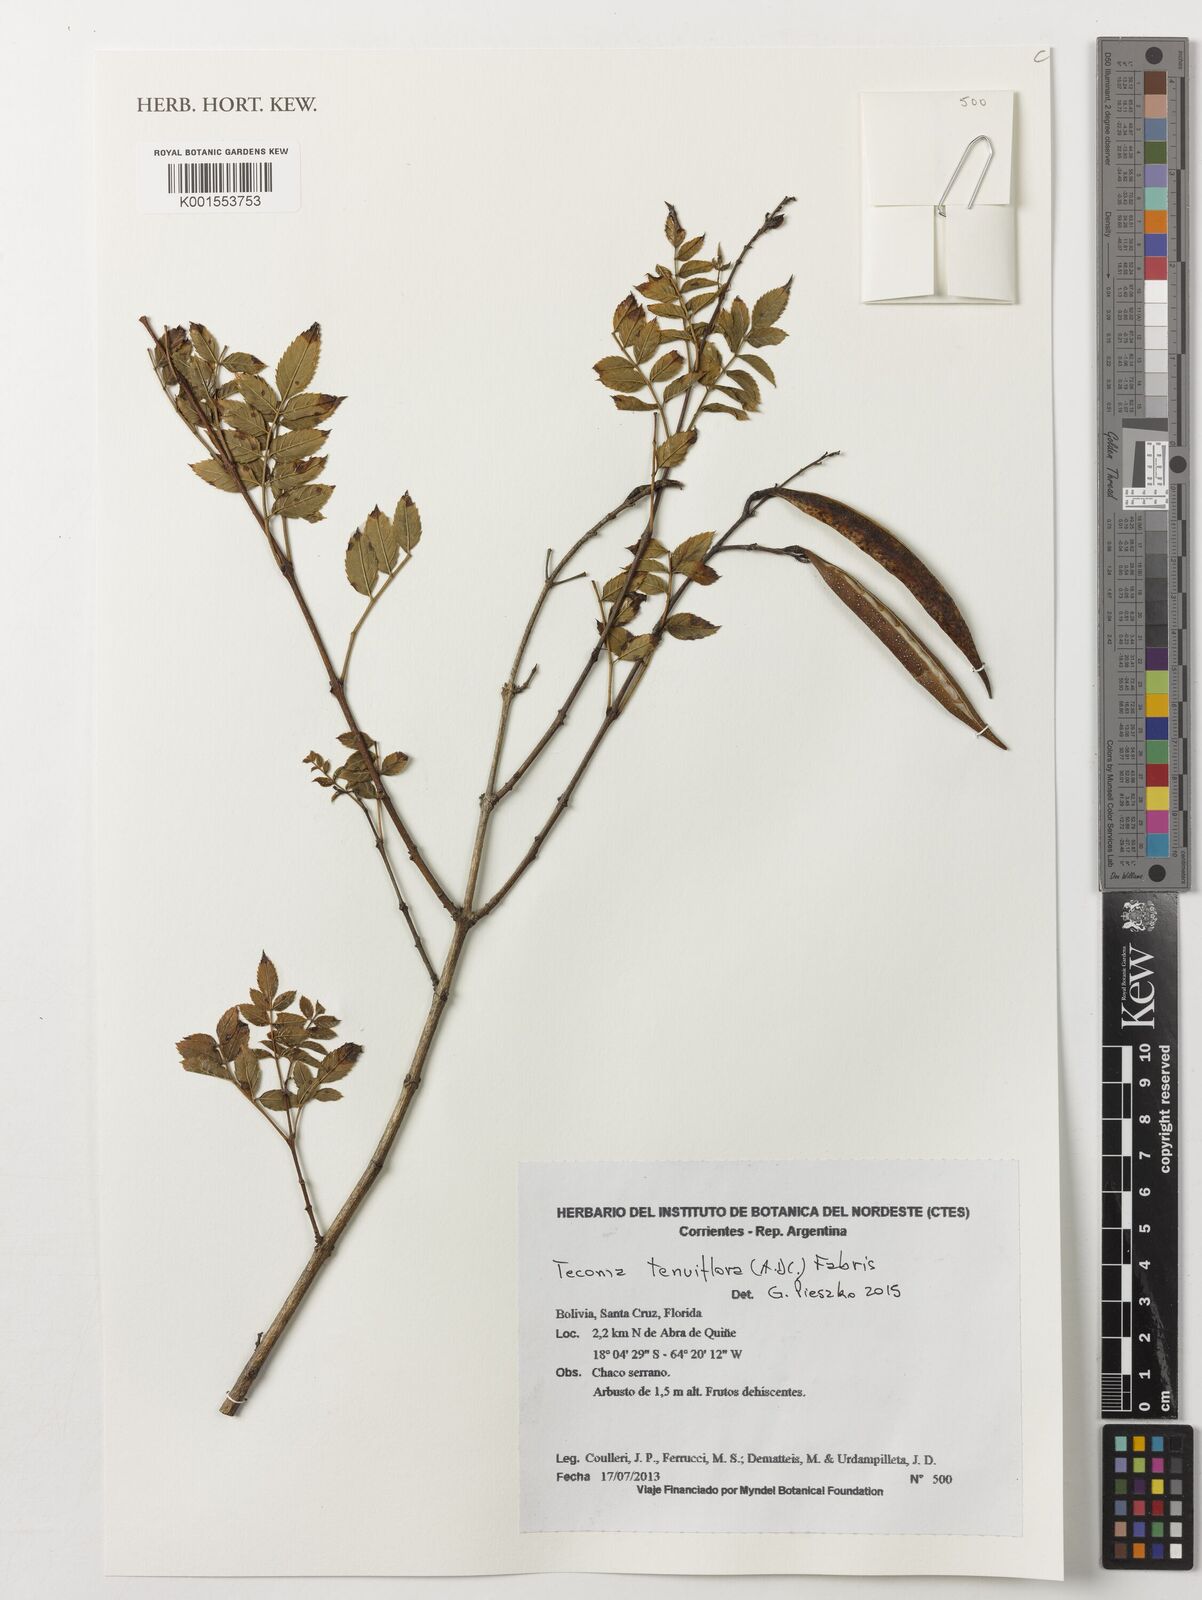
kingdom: Plantae
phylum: Tracheophyta
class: Magnoliopsida
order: Lamiales
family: Bignoniaceae
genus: Tecoma
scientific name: Tecoma tenuiflora
